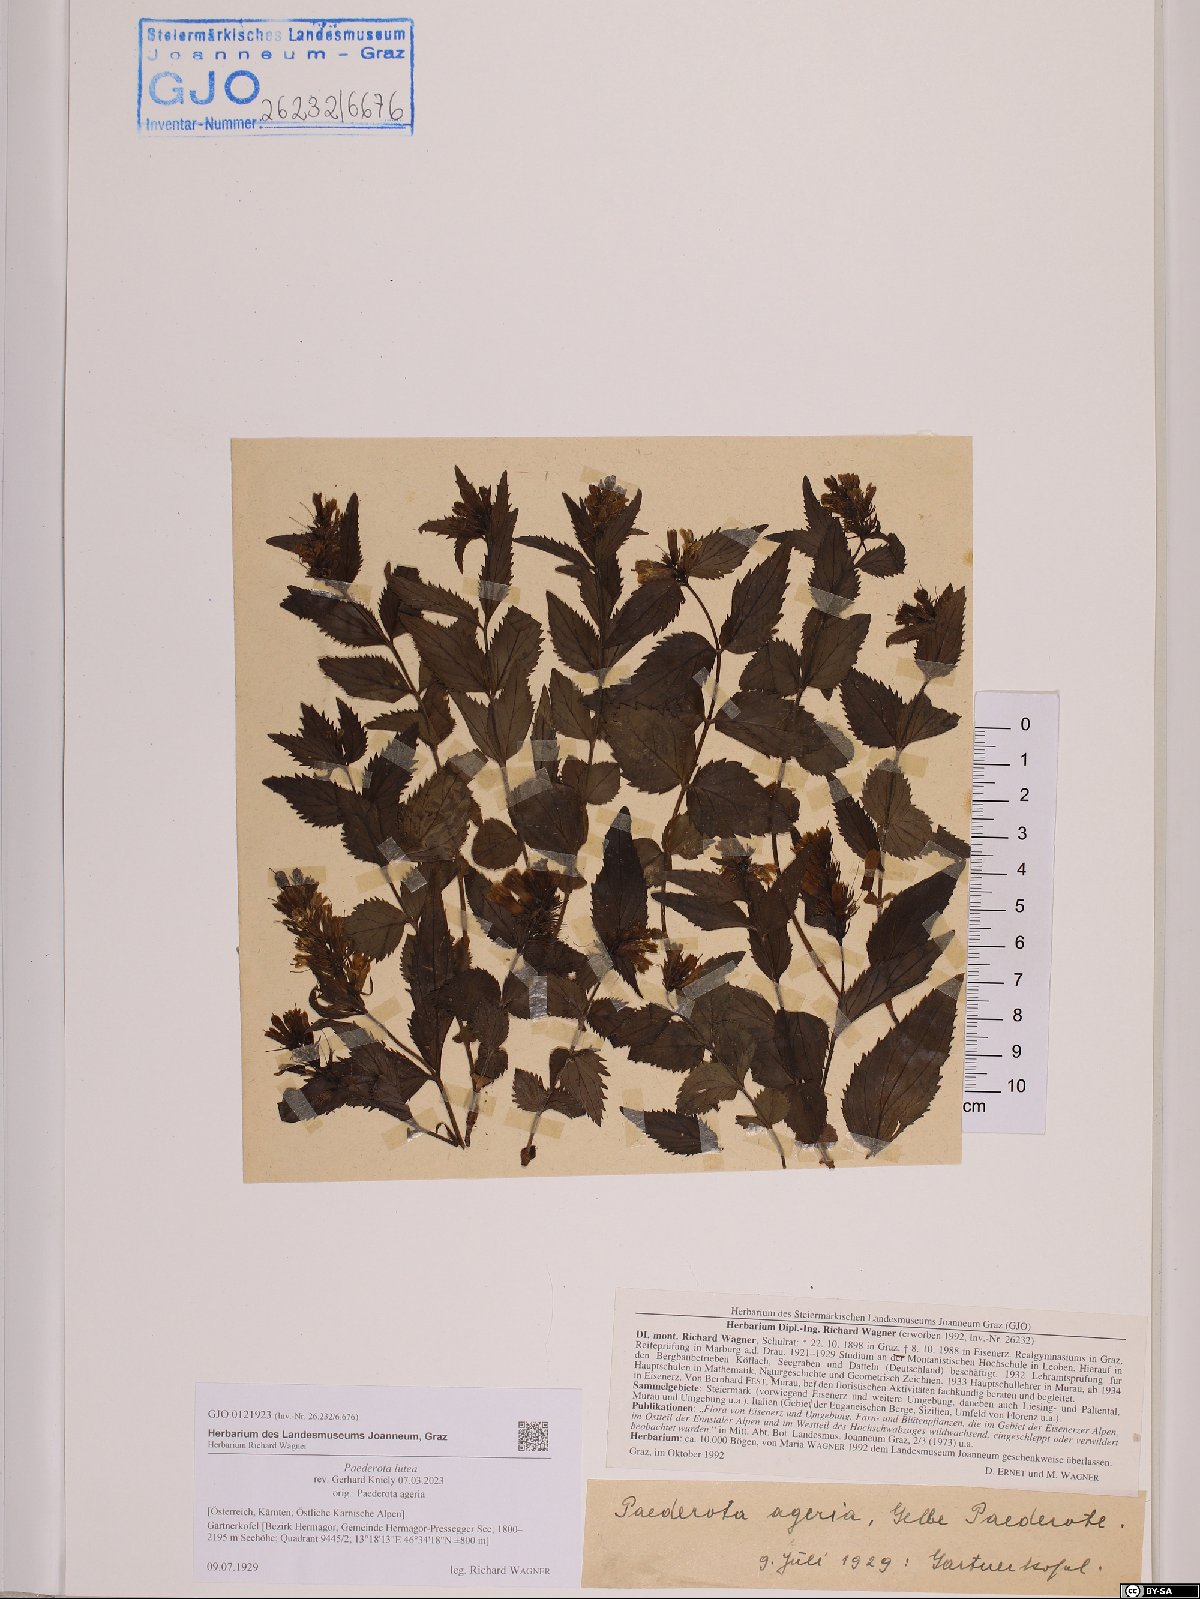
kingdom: Plantae
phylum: Tracheophyta
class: Magnoliopsida
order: Lamiales
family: Plantaginaceae
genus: Paederota
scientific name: Paederota lutea
